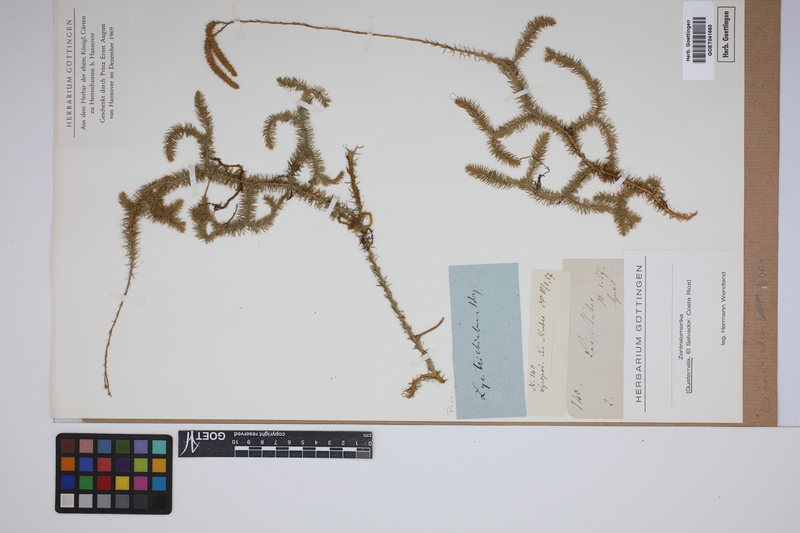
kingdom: Plantae
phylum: Tracheophyta
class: Lycopodiopsida
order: Lycopodiales
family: Lycopodiaceae
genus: Lycopodium
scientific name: Lycopodium clavatum
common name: Stag's-horn clubmoss
